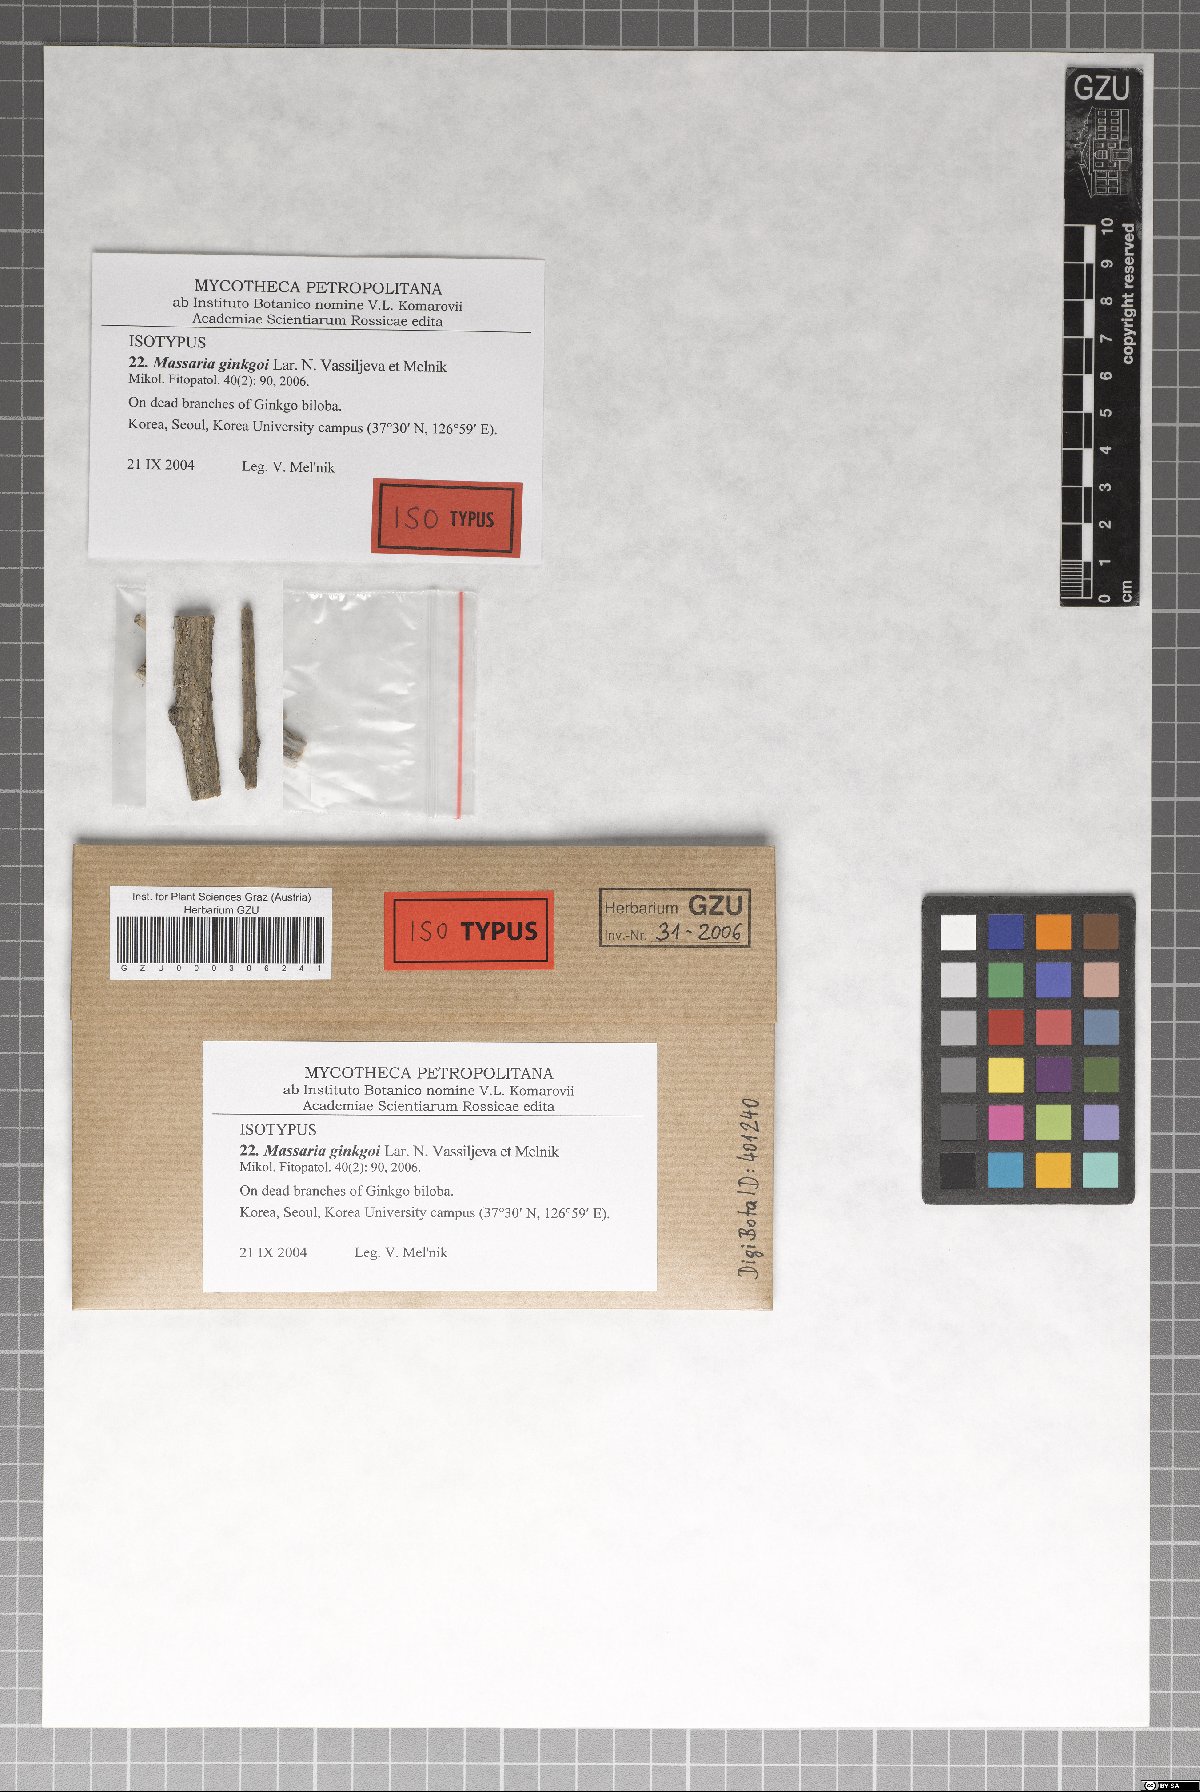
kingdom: Fungi
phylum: Ascomycota
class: Dothideomycetes
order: Pleosporales
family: Massariaceae
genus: Massaria
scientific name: Massaria ginkgoi
